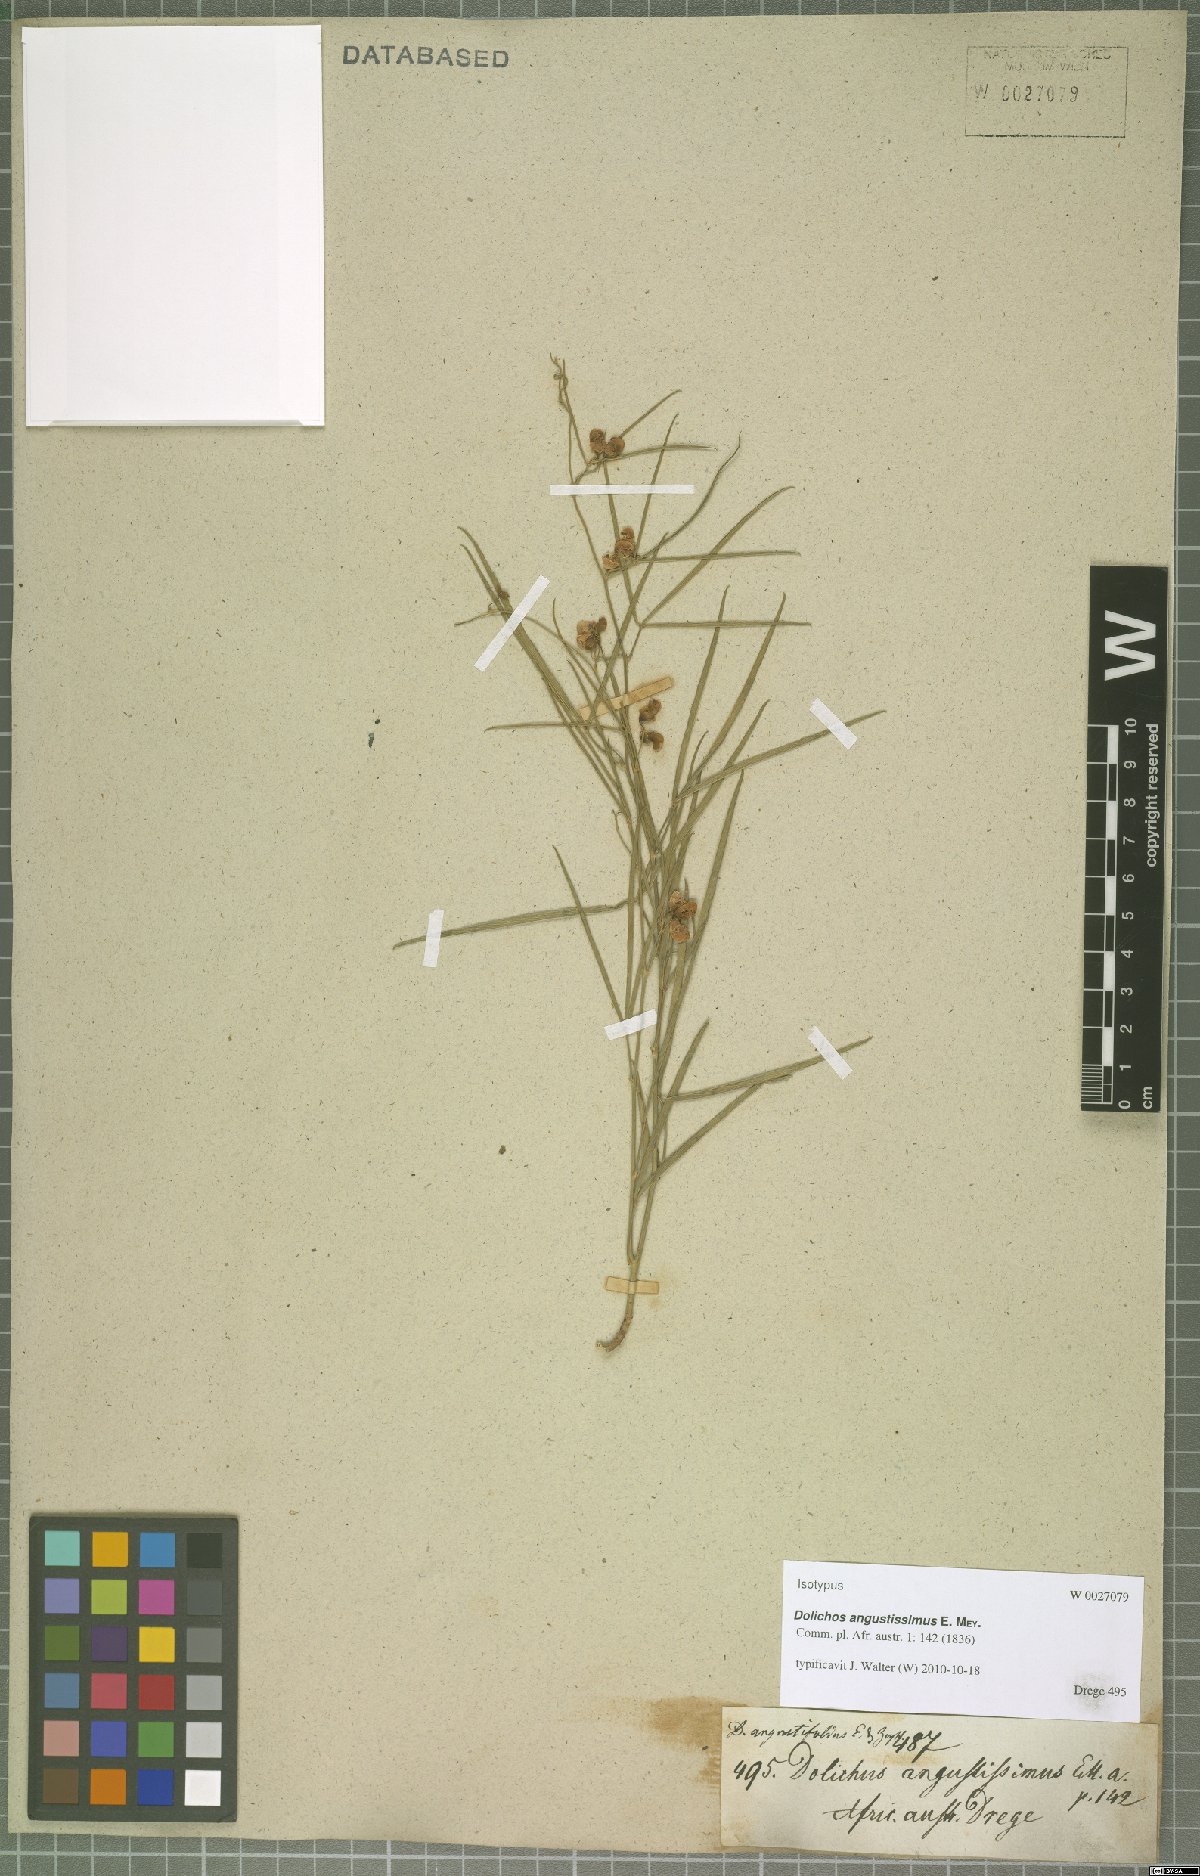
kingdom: Plantae
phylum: Tracheophyta
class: Magnoliopsida
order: Fabales
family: Fabaceae
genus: Dolichos
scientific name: Dolichos angustissimus
